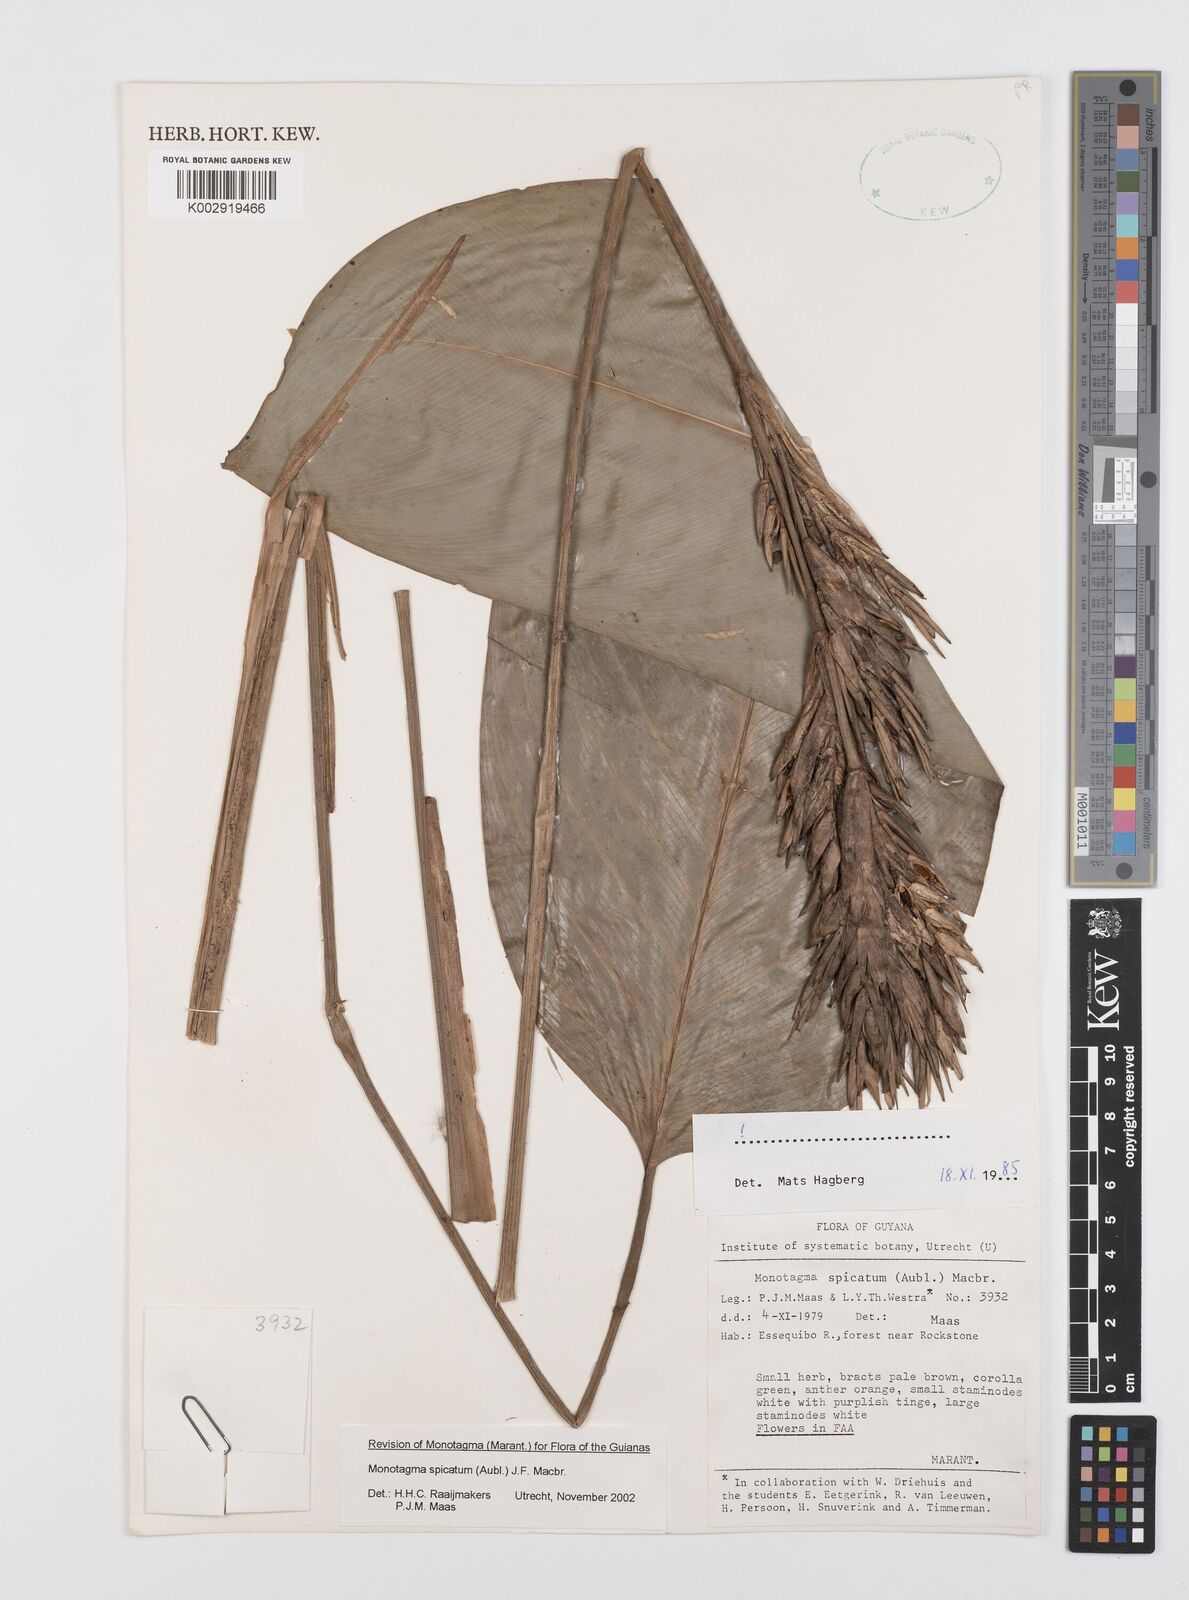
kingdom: Plantae
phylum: Tracheophyta
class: Liliopsida
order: Zingiberales
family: Marantaceae
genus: Monotagma
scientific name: Monotagma spicatum
